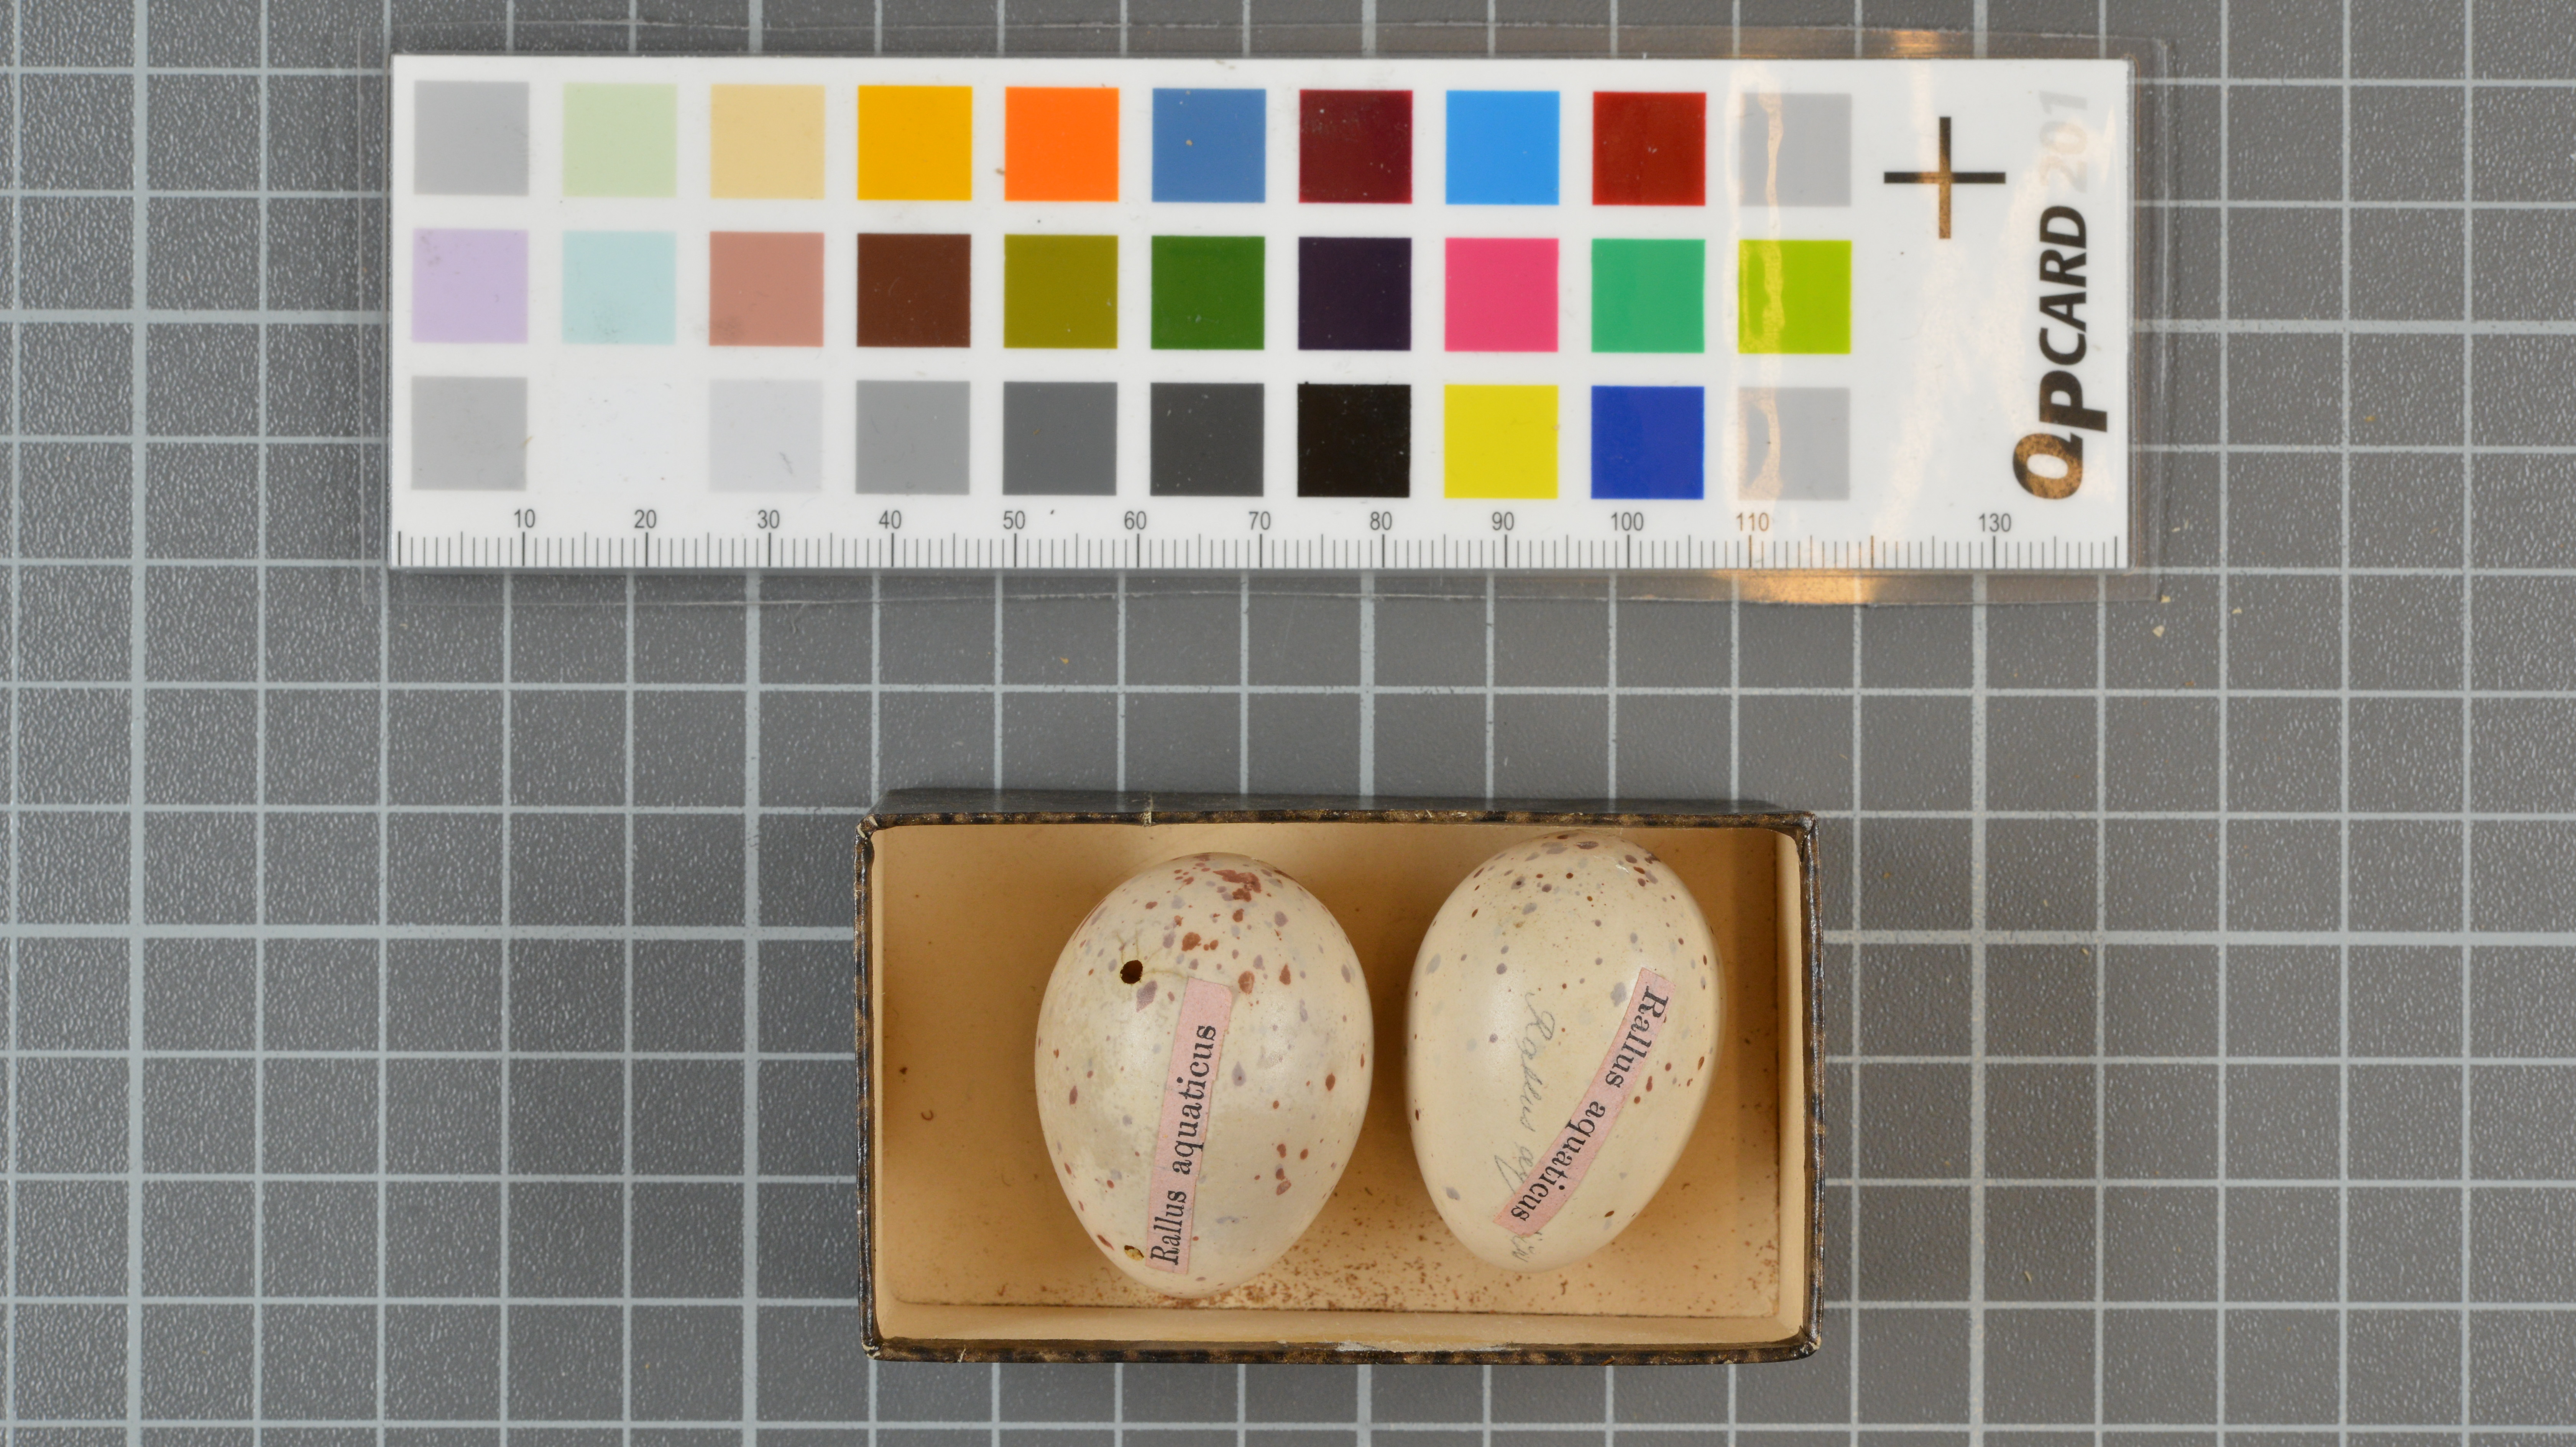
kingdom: Animalia
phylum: Chordata
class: Aves
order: Gruiformes
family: Rallidae
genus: Rallus
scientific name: Rallus aquaticus
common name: Water rail
